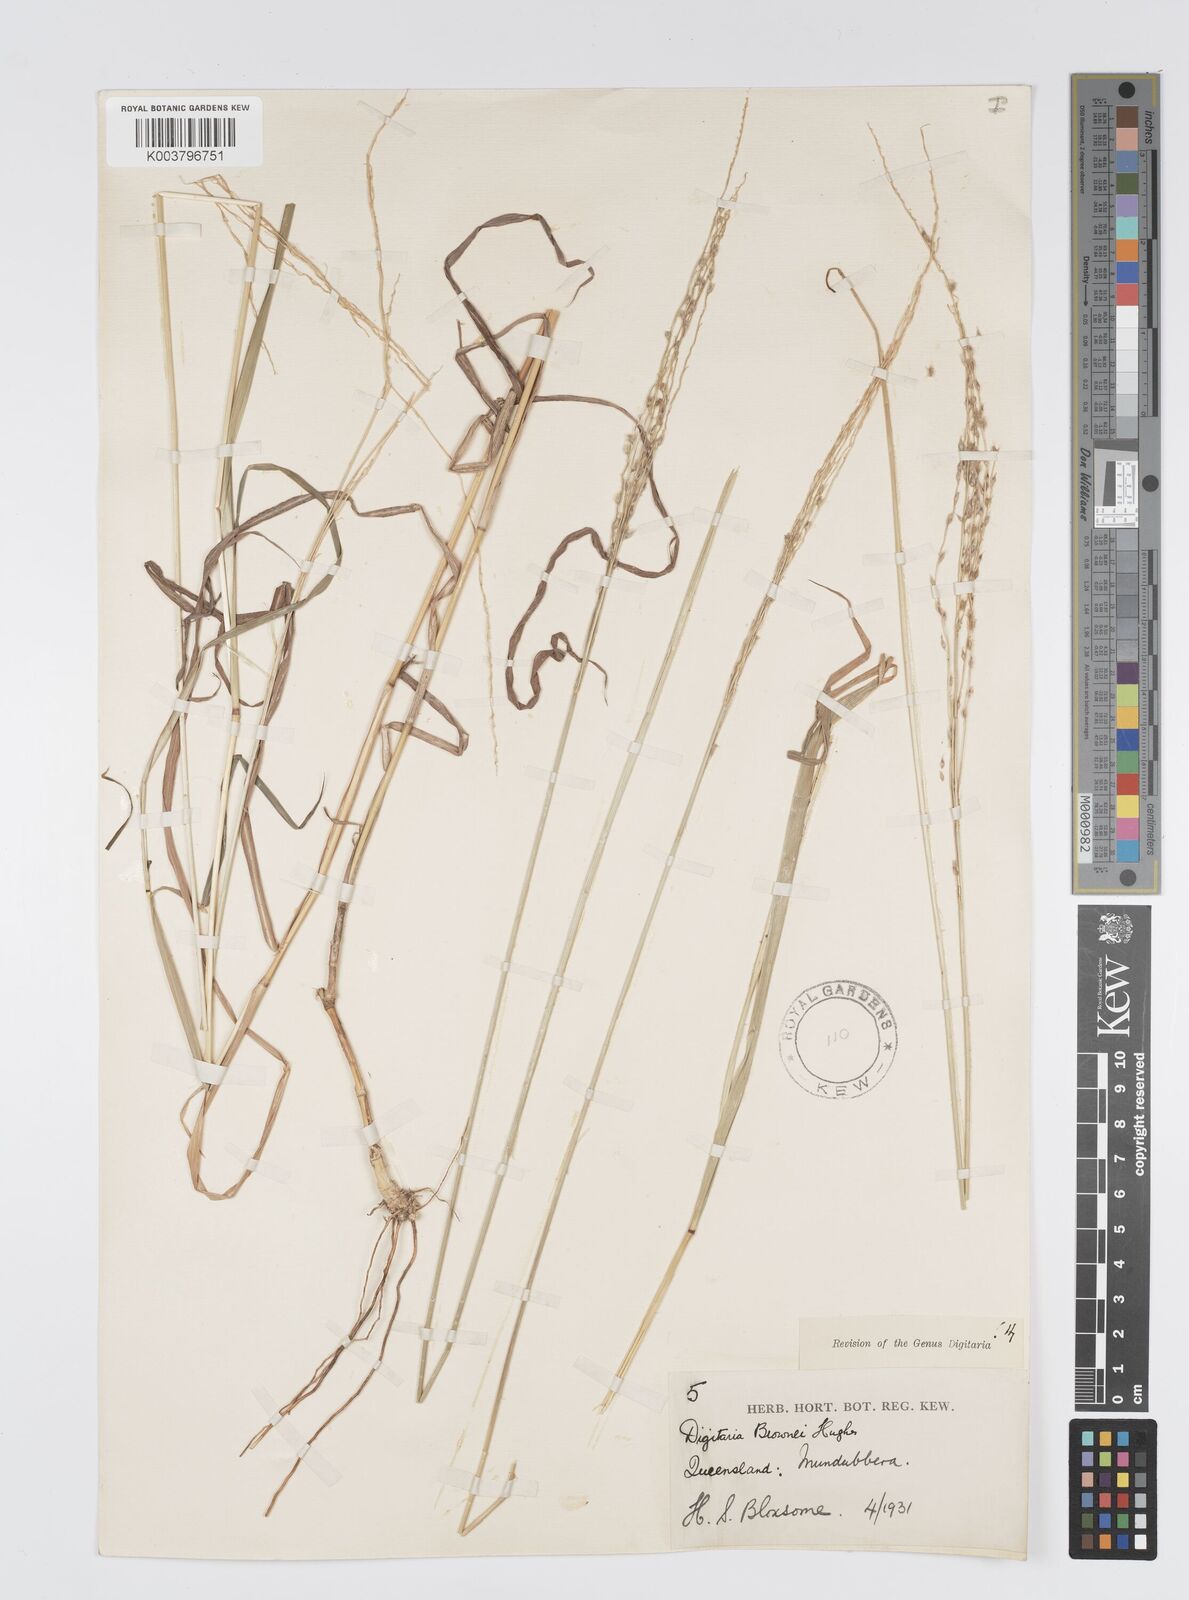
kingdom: Plantae
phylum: Tracheophyta
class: Liliopsida
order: Poales
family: Poaceae
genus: Digitaria
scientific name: Digitaria brownii
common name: Cotton grass
